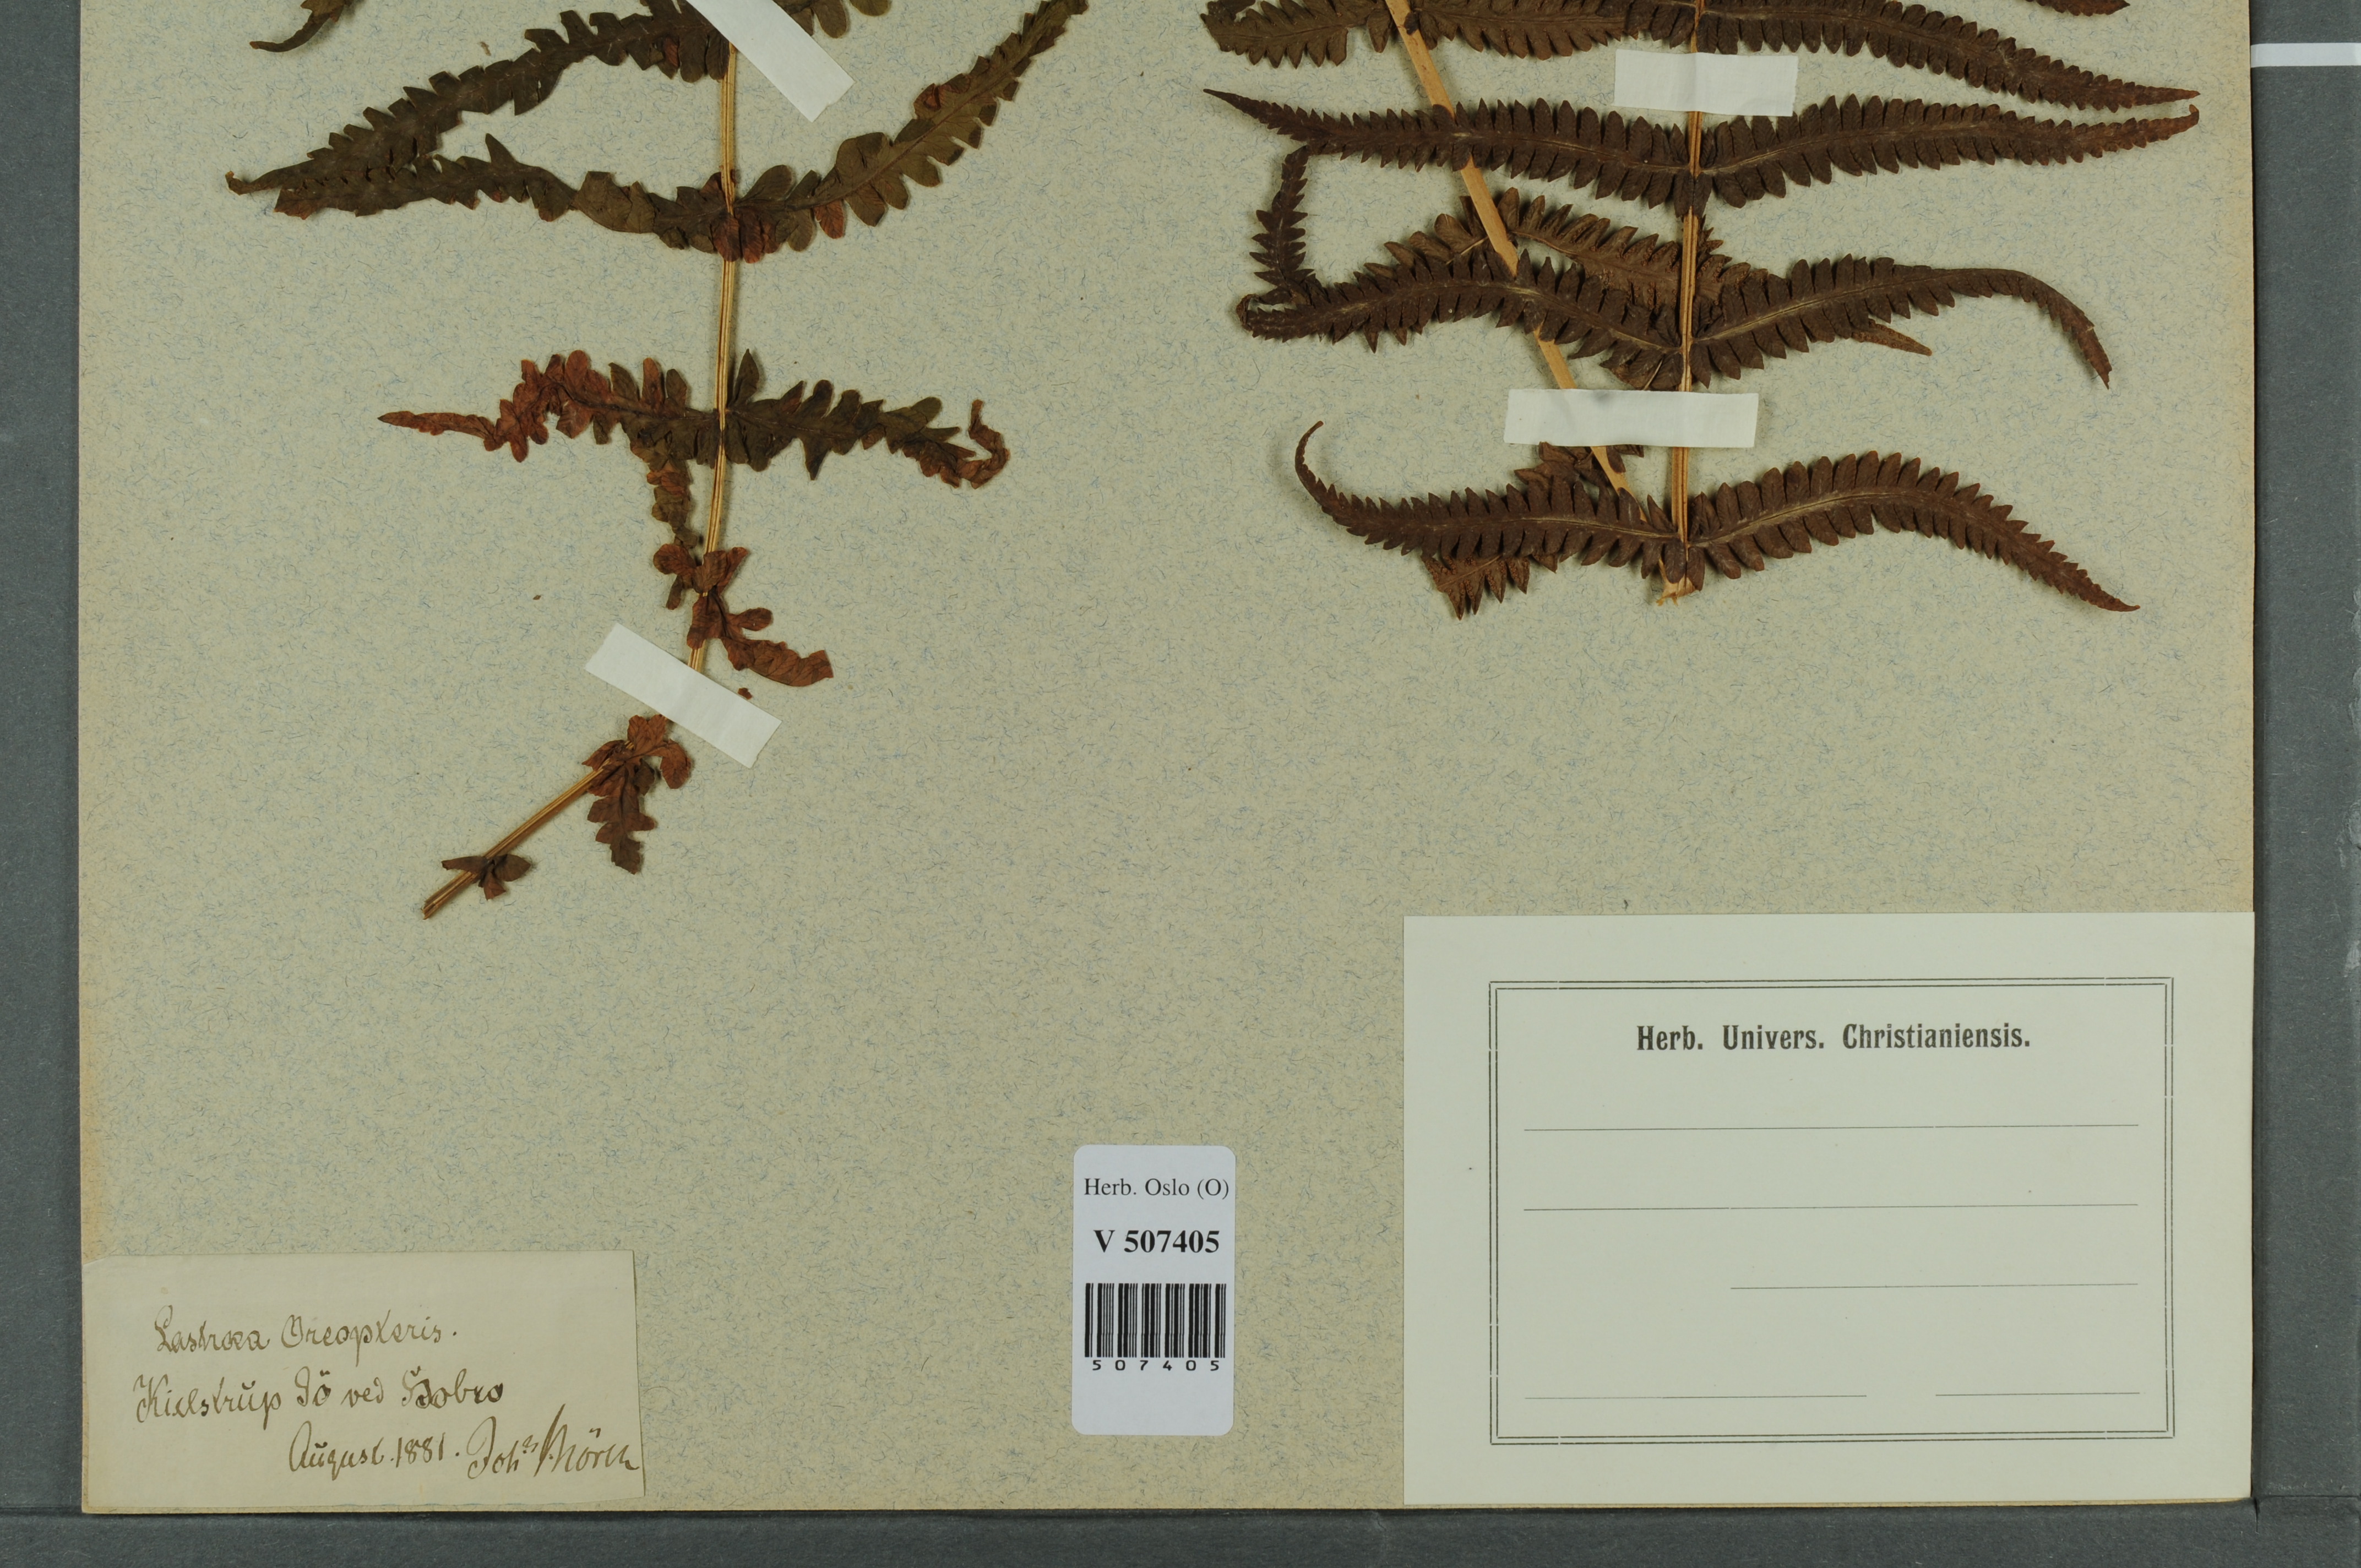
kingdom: Plantae
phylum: Tracheophyta
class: Polypodiopsida
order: Polypodiales
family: Thelypteridaceae
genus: Oreopteris
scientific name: Oreopteris limbosperma
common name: Lemon-scented fern
